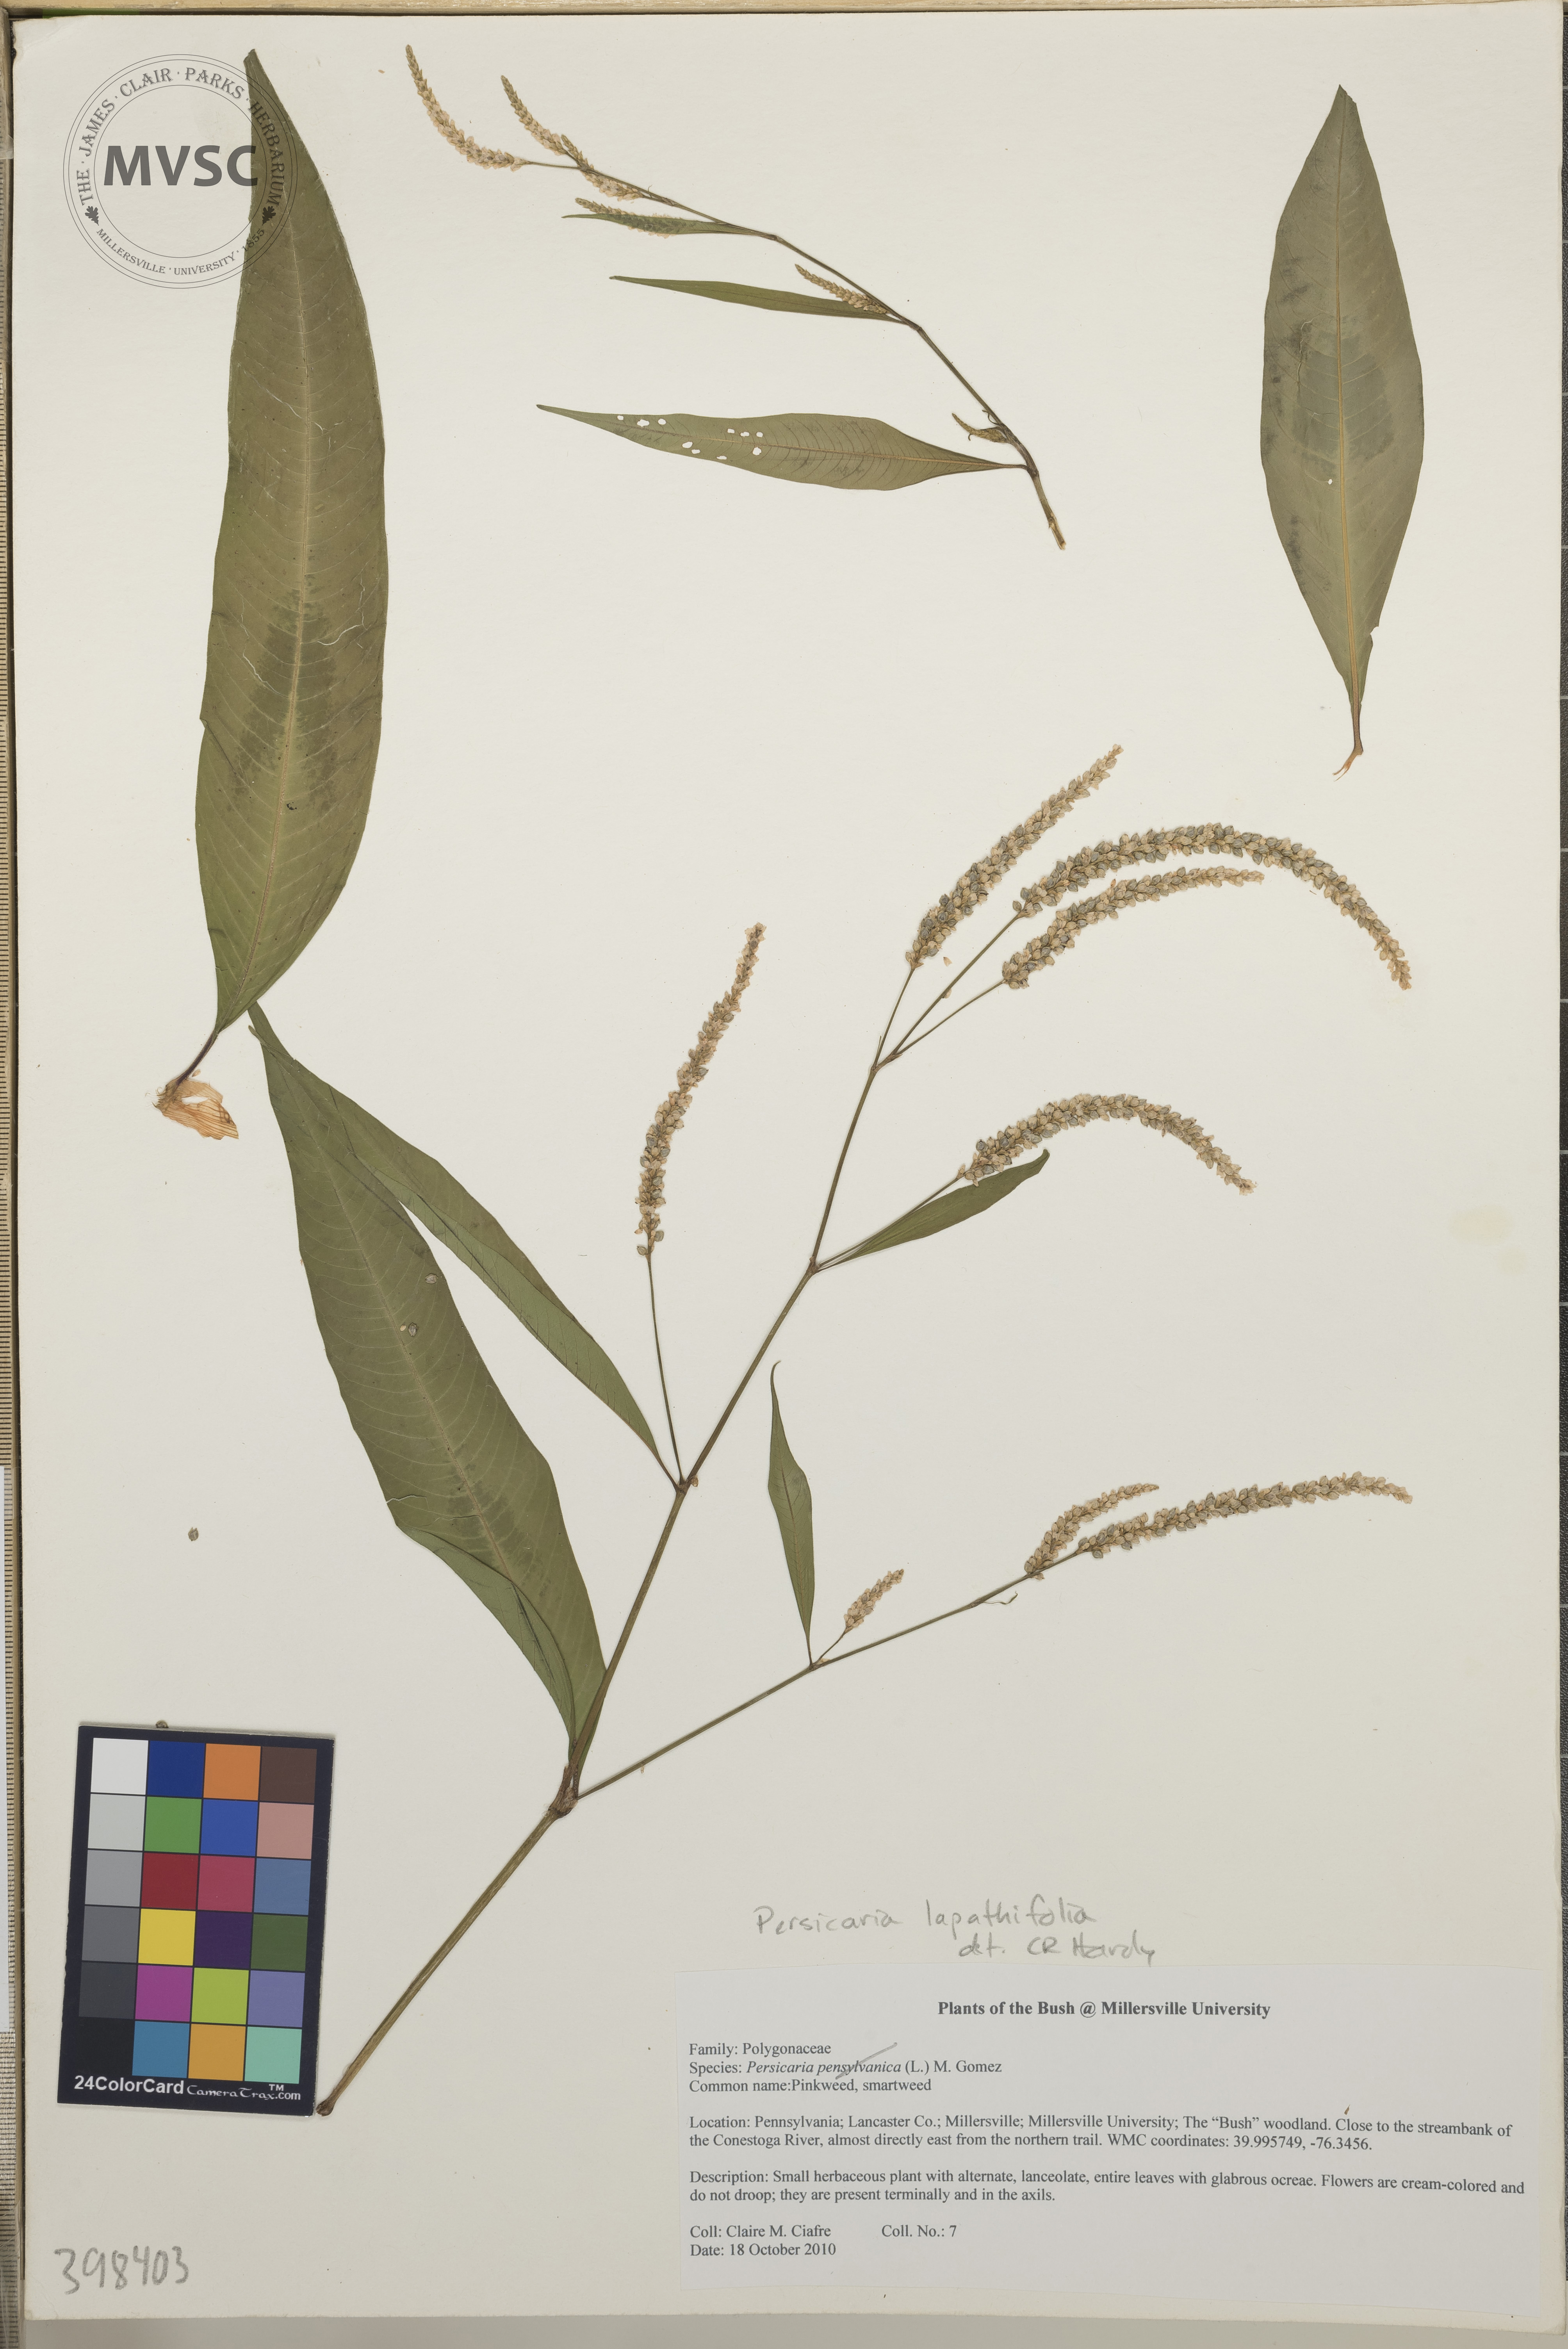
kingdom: Plantae
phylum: Tracheophyta
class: Magnoliopsida
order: Caryophyllales
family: Polygonaceae
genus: Persicaria
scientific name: Persicaria lapathifolia
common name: Knotweed
